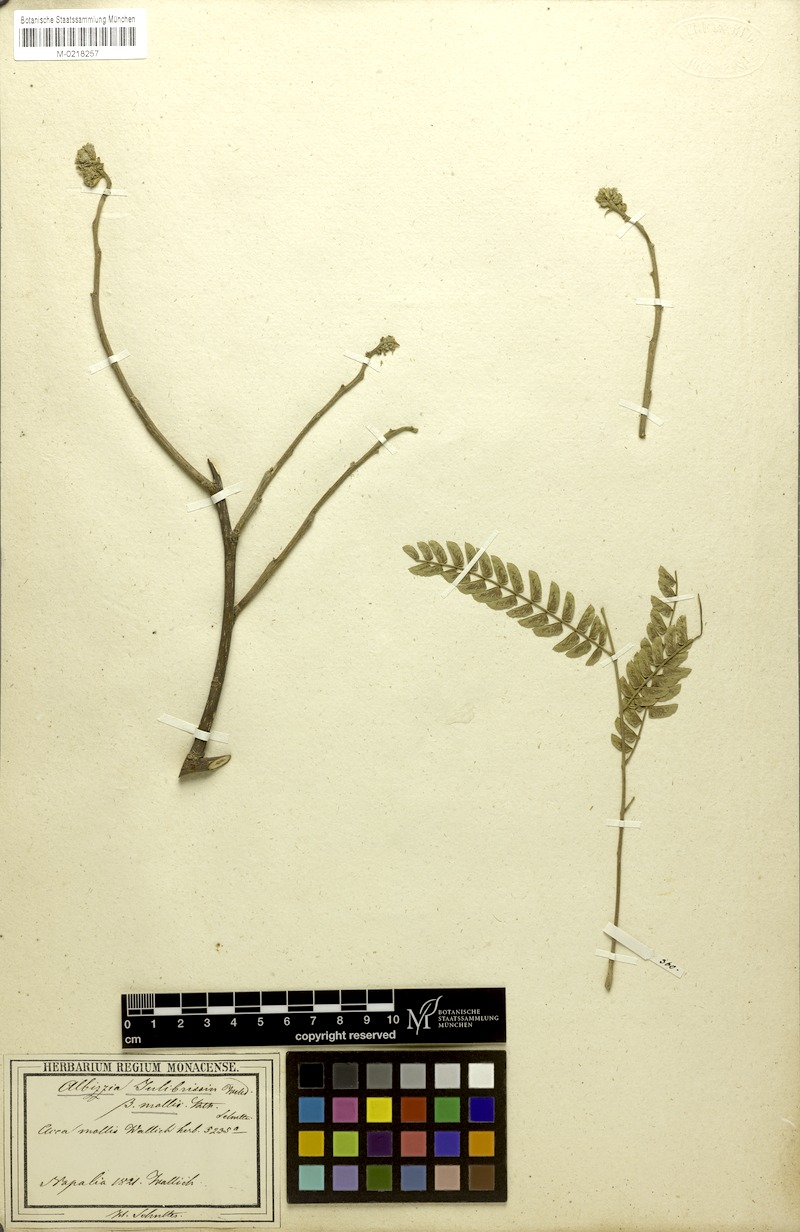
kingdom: Plantae
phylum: Tracheophyta
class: Magnoliopsida
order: Fabales
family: Fabaceae
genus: Albizia
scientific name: Albizia julibrissin
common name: Silktree
